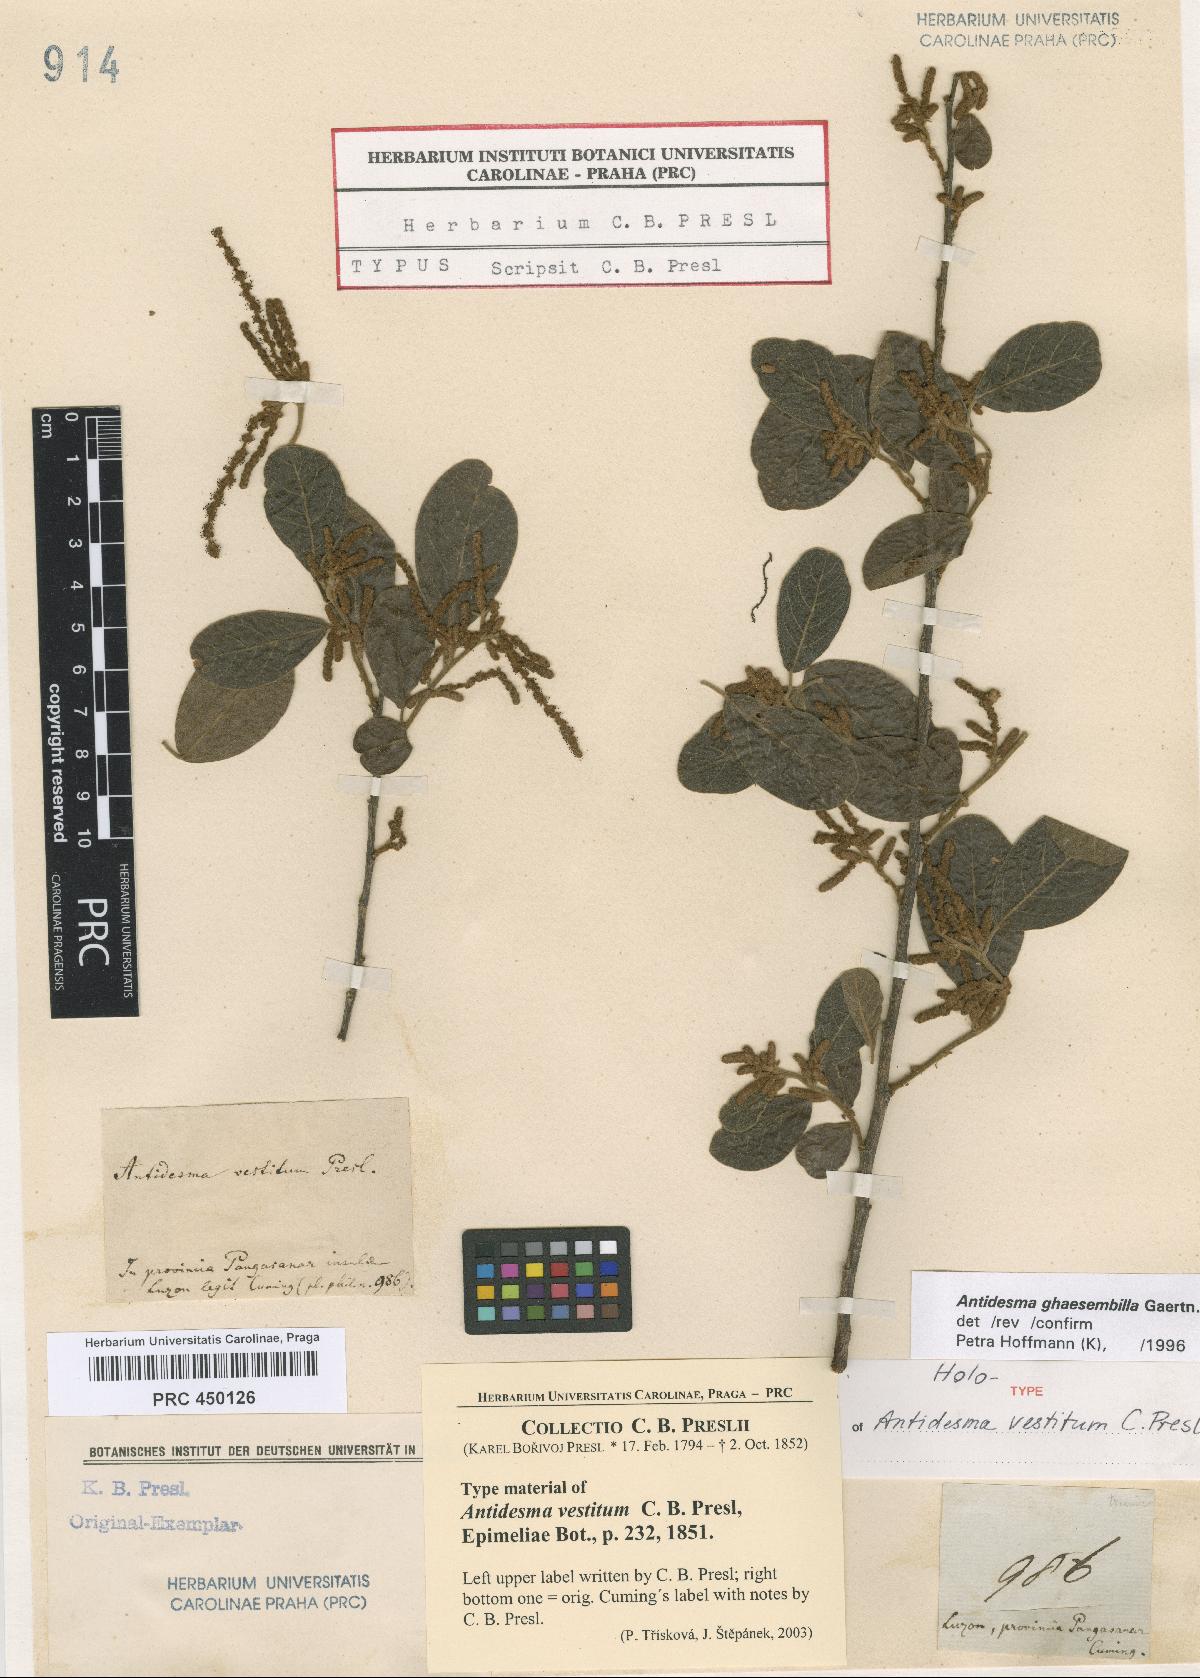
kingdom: Plantae
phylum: Tracheophyta
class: Magnoliopsida
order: Malpighiales
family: Phyllanthaceae
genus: Antidesma
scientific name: Antidesma ghaesembilla
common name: Black currant-tree
